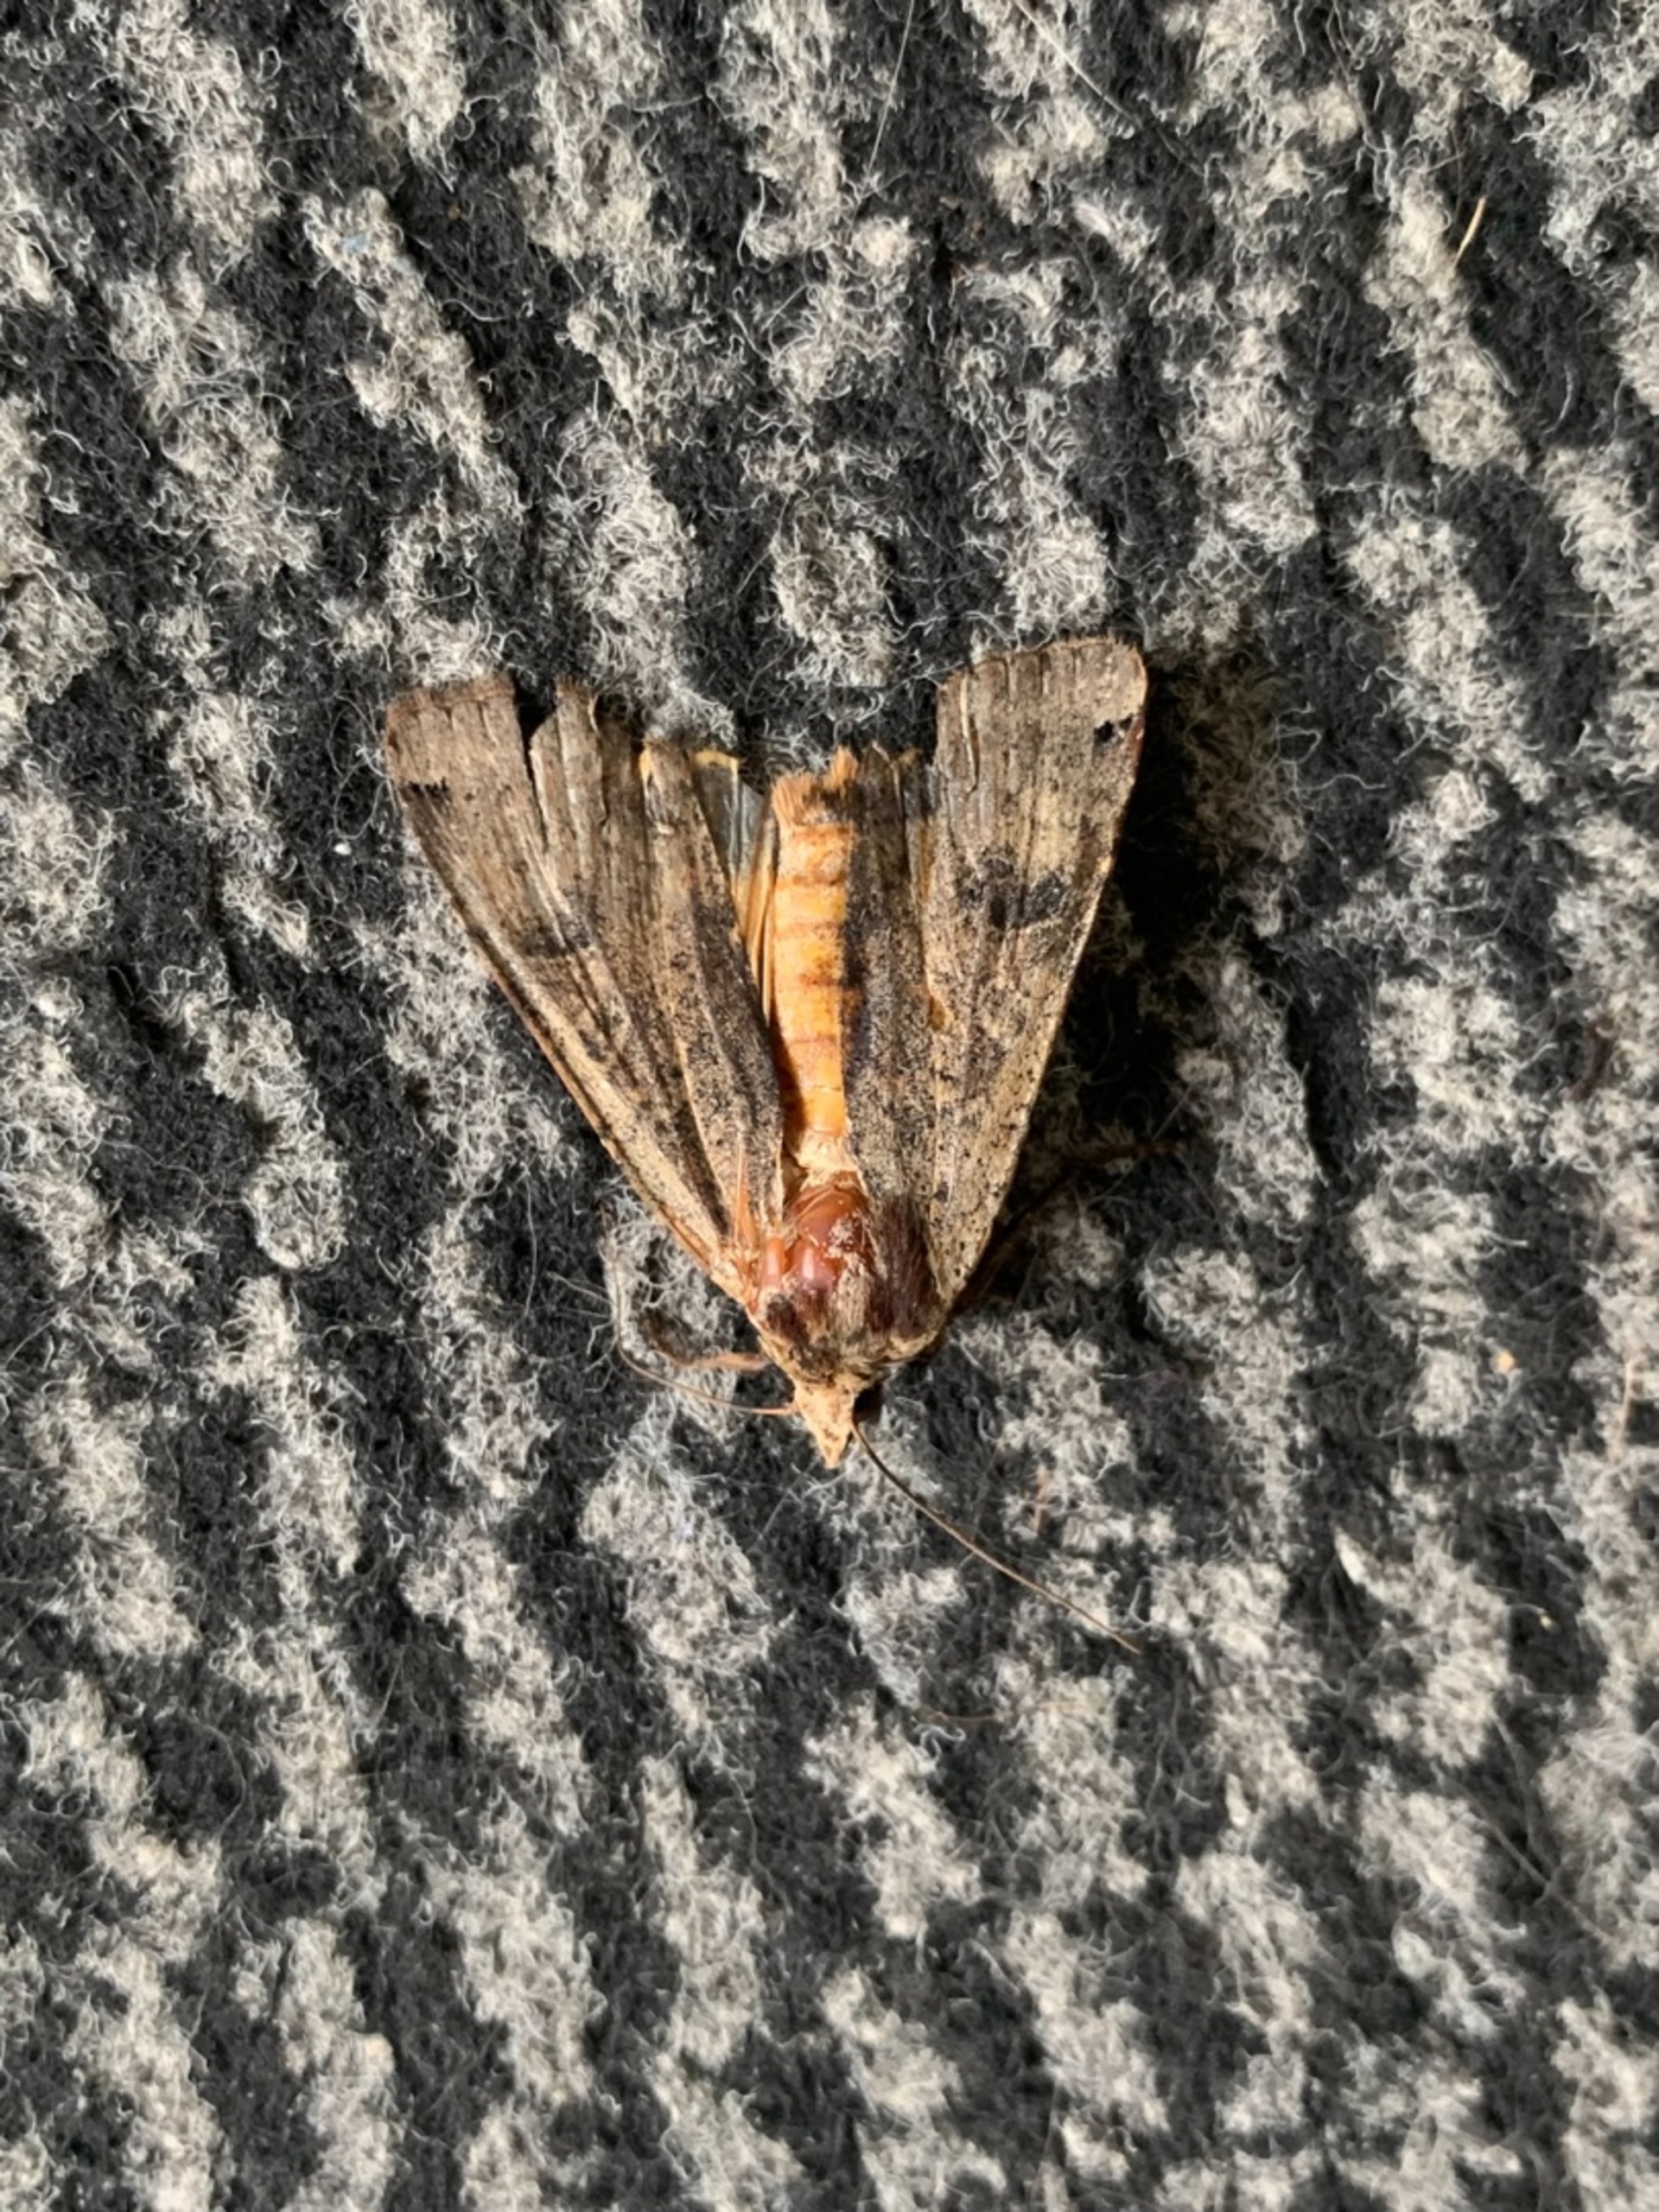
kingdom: Animalia
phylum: Arthropoda
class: Insecta
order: Lepidoptera
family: Noctuidae
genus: Noctua
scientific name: Noctua pronuba
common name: Stor smutugle
